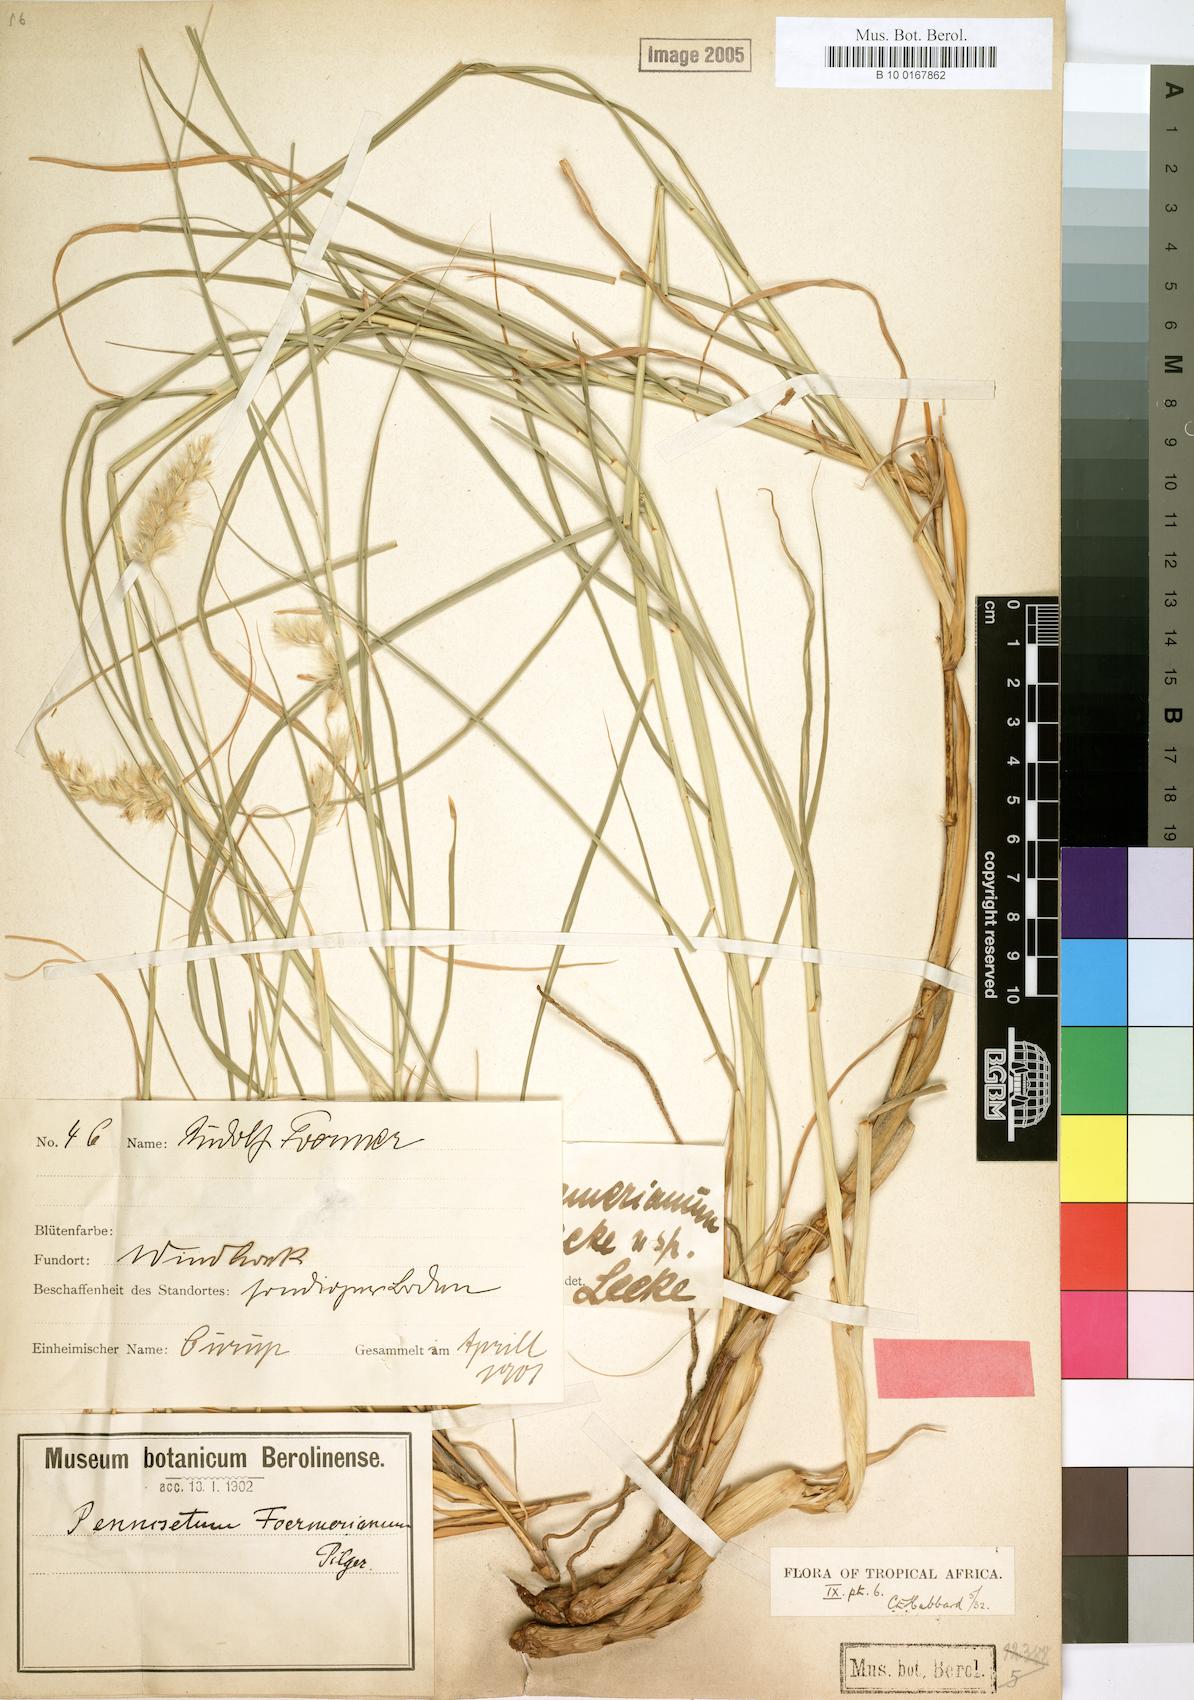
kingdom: Plantae
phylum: Tracheophyta
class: Liliopsida
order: Poales
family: Poaceae
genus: Cenchrus
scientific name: Cenchrus foermerianus
